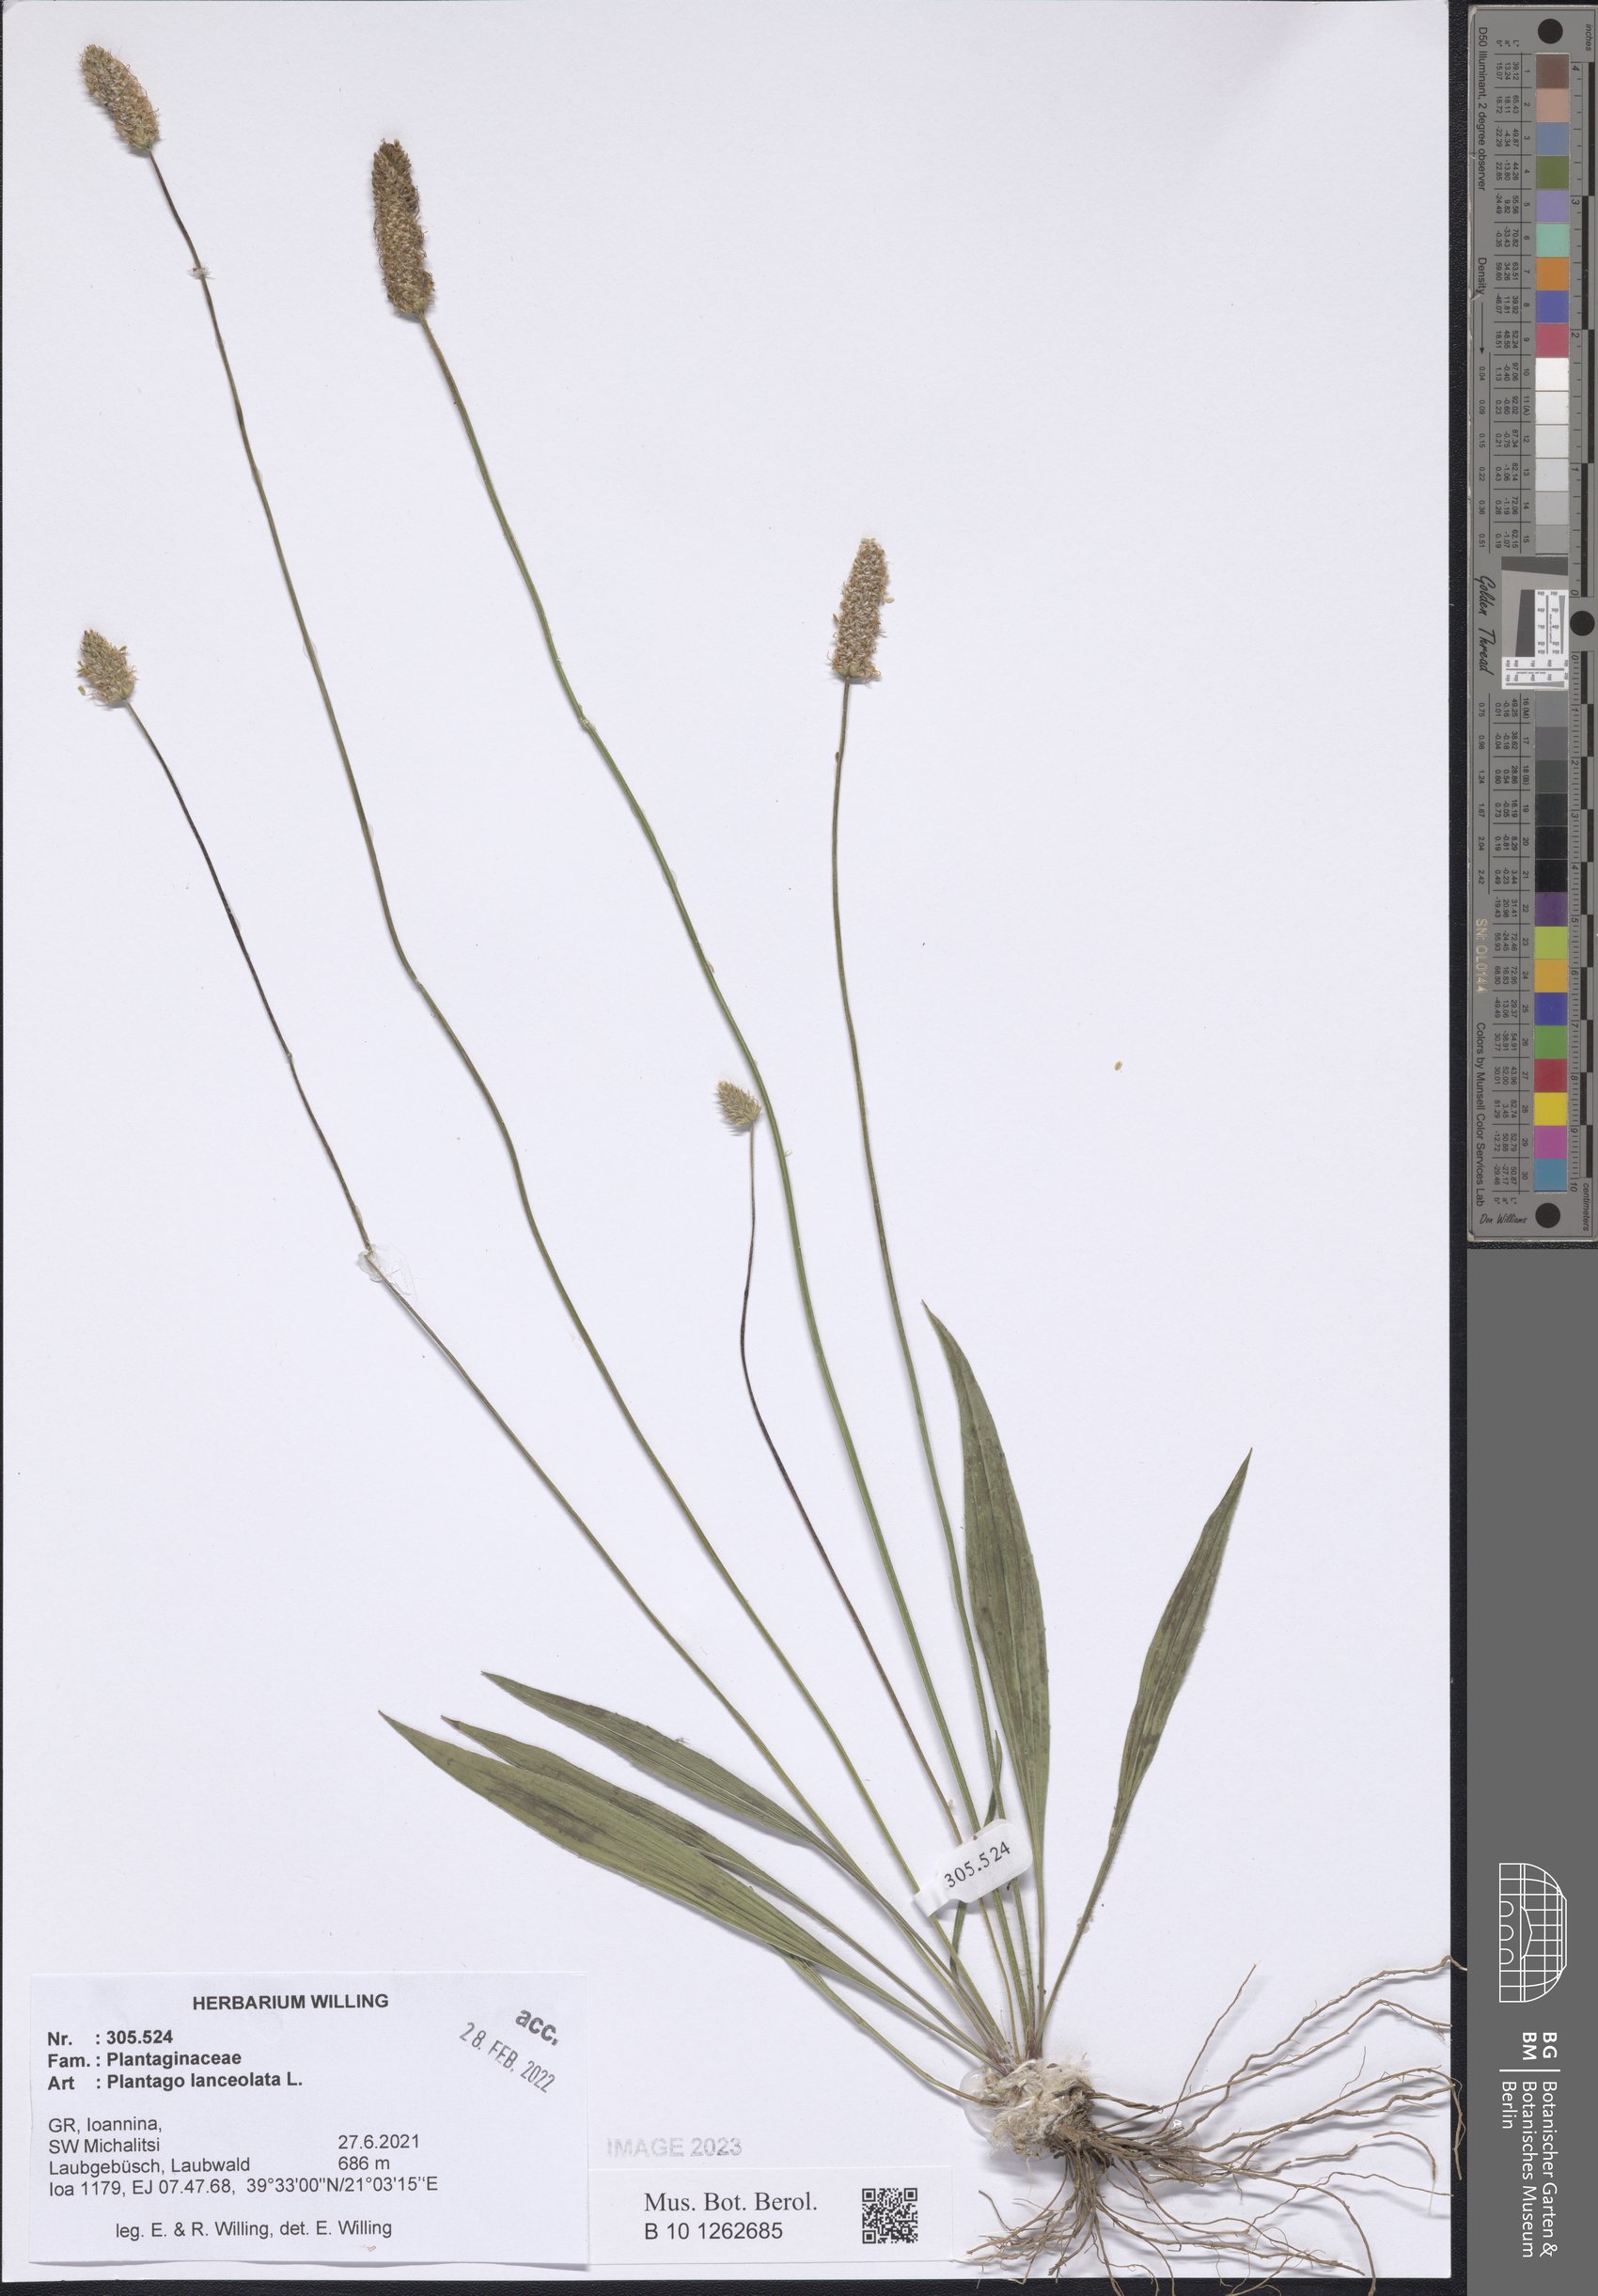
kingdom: Plantae
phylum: Tracheophyta
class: Magnoliopsida
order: Lamiales
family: Plantaginaceae
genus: Plantago
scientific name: Plantago lanceolata
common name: Ribwort plantain
